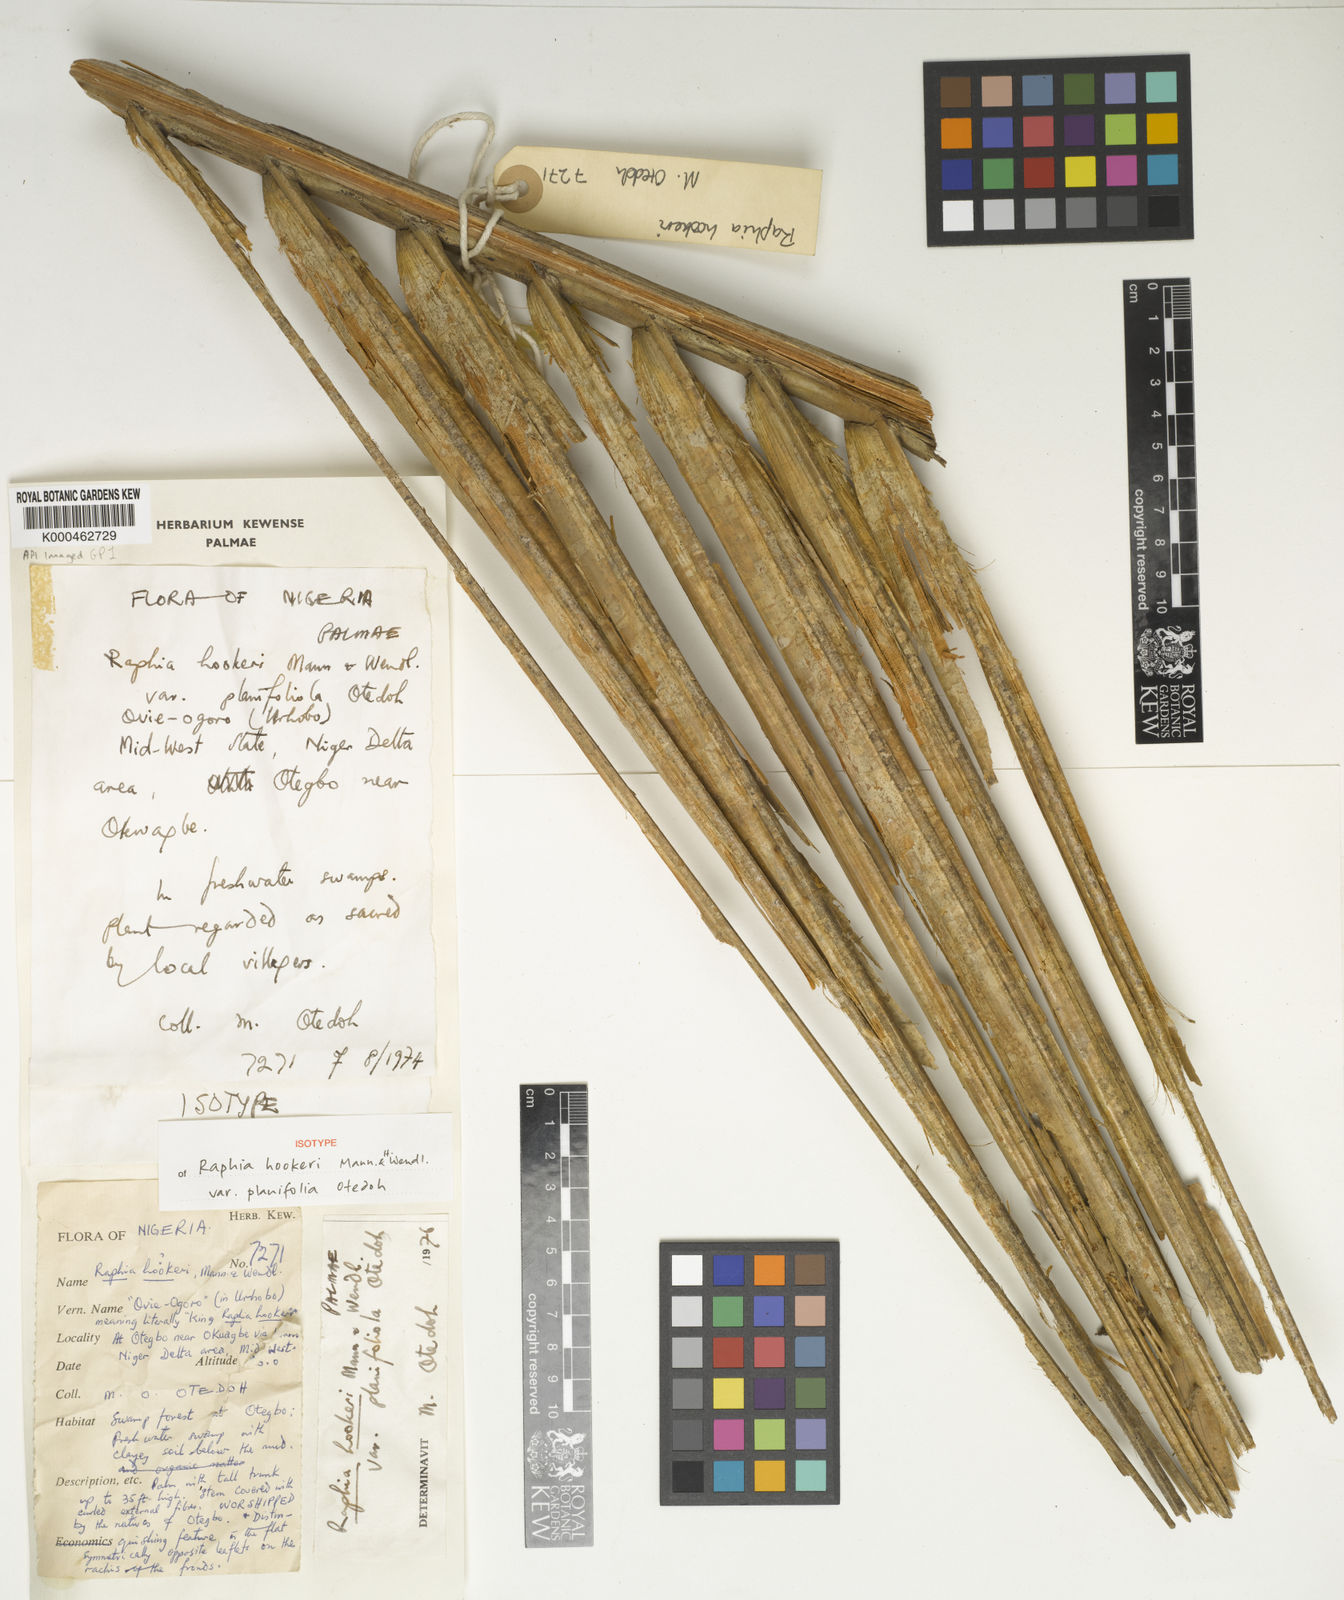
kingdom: Plantae
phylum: Tracheophyta
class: Liliopsida
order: Arecales
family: Arecaceae
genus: Raphia
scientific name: Raphia hookeri
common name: Wine palm
